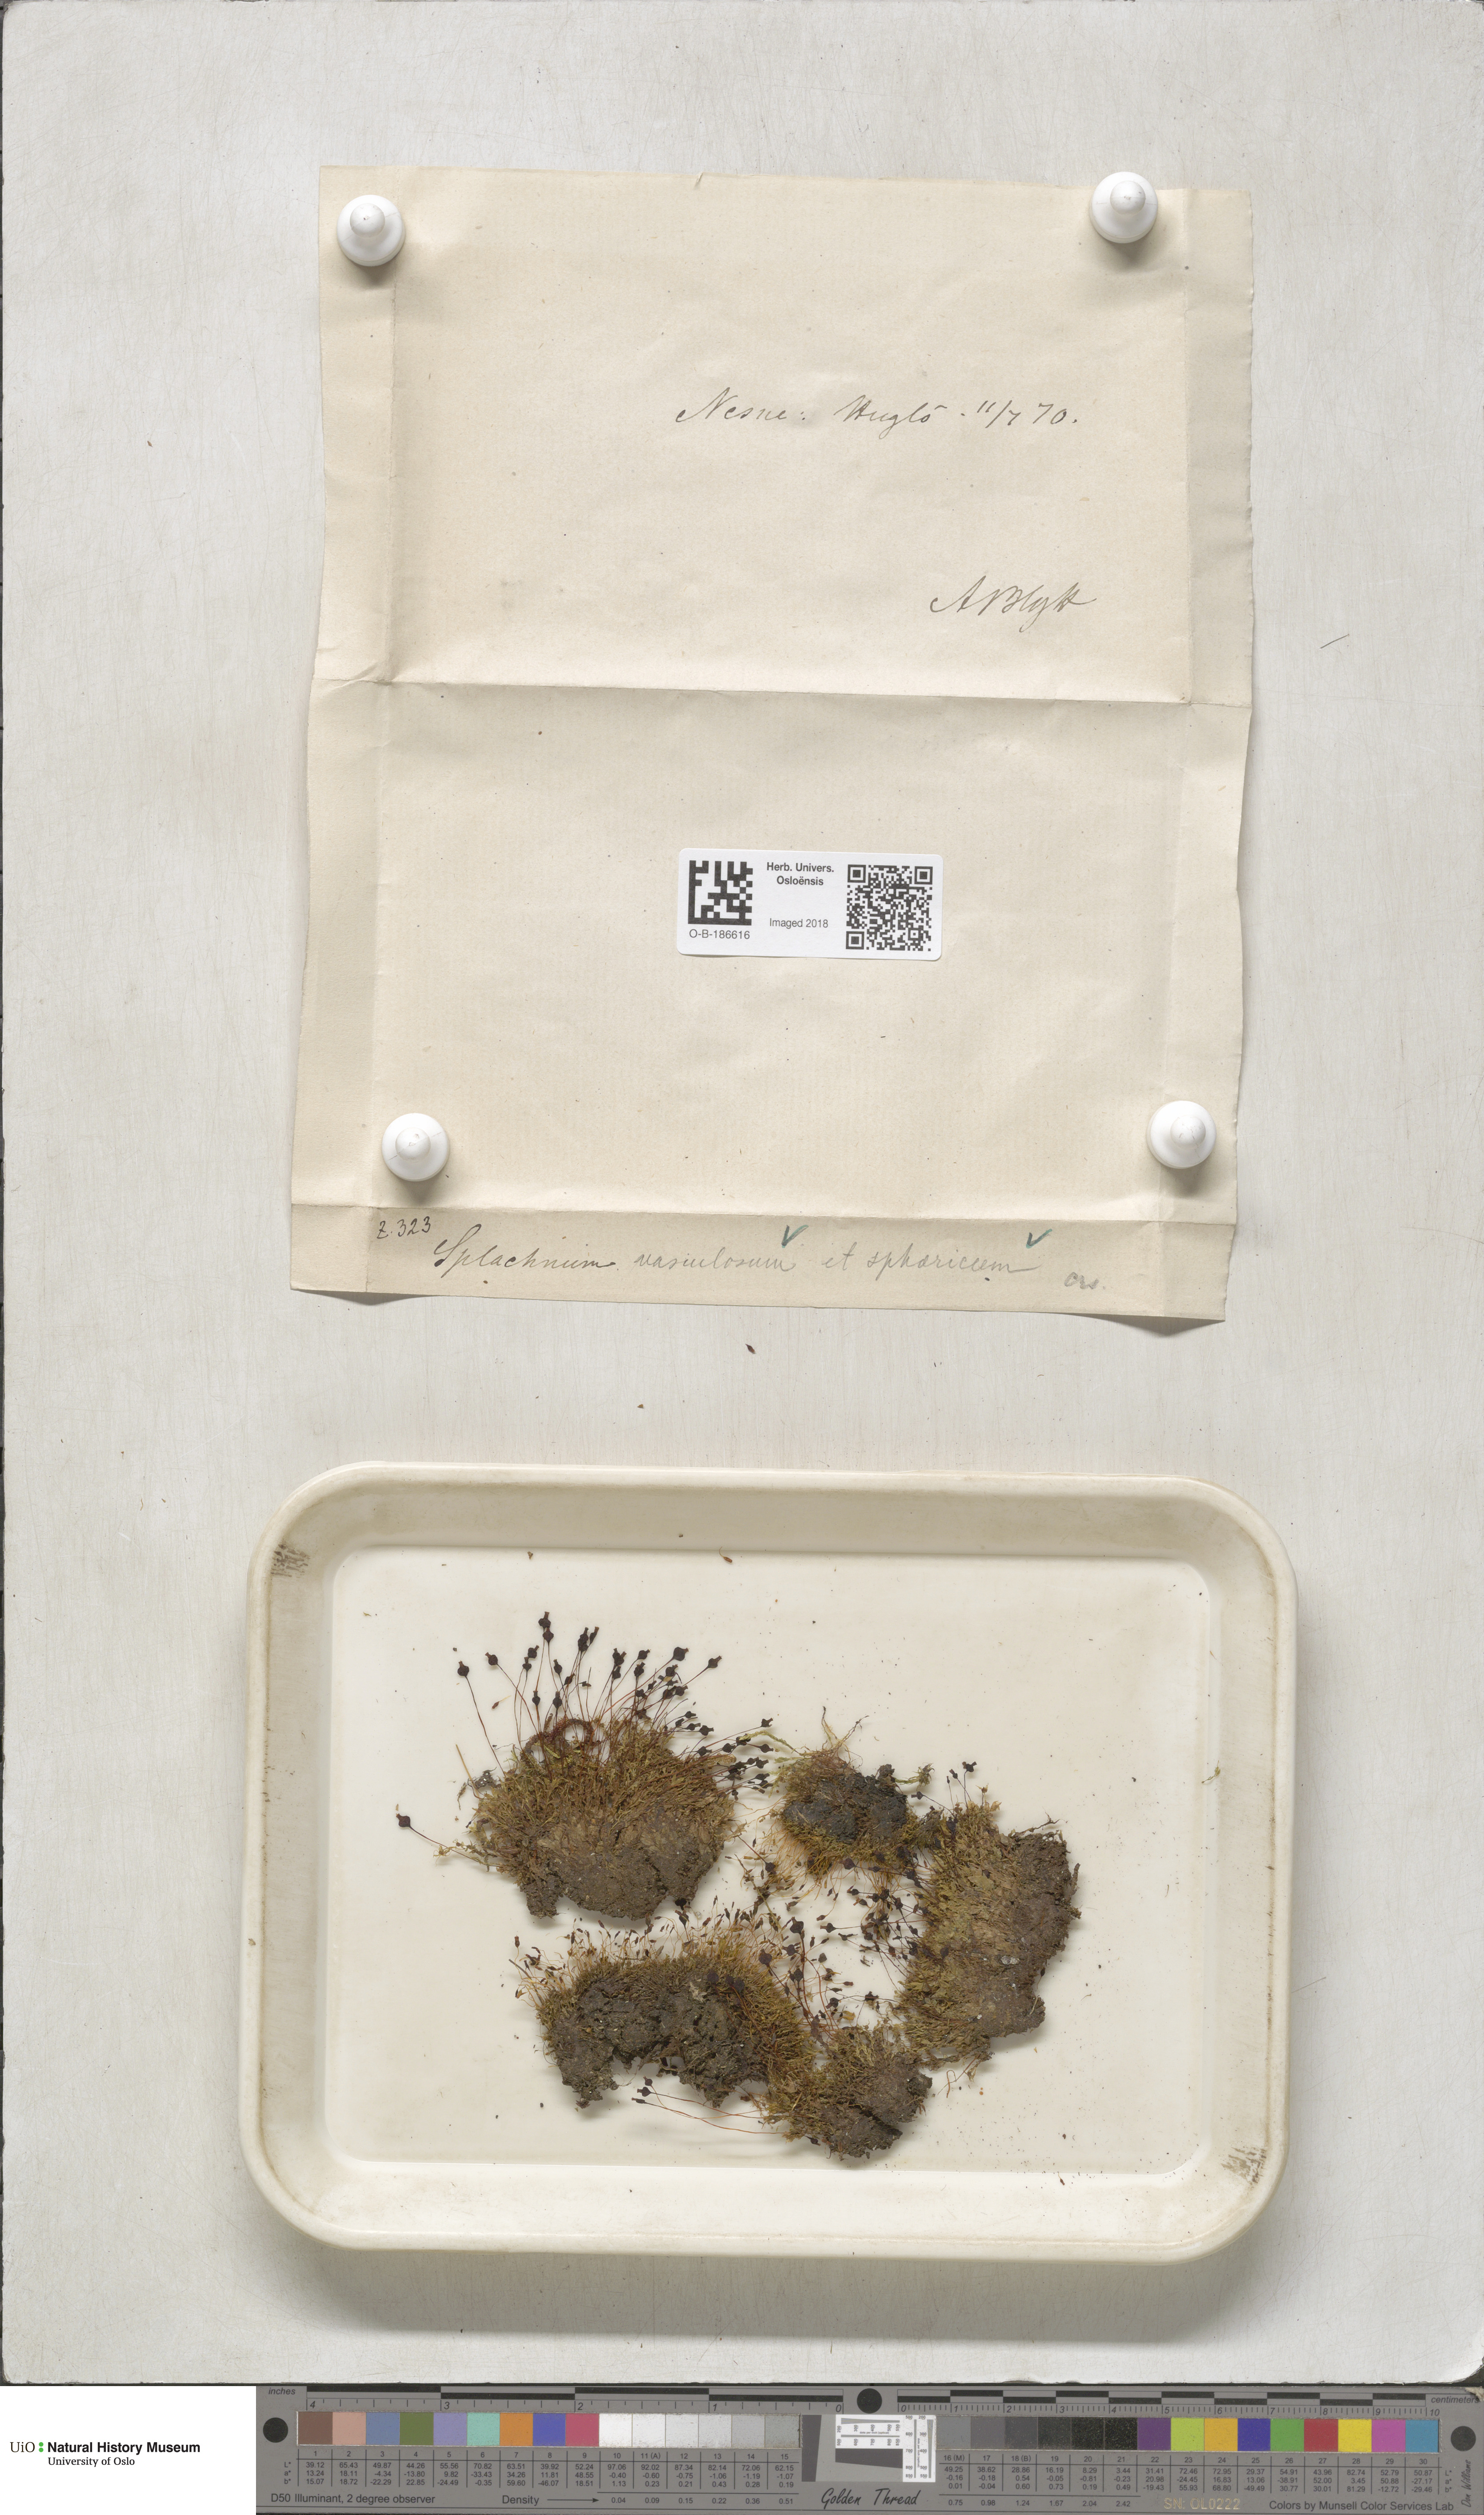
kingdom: Plantae
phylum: Bryophyta
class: Bryopsida
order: Splachnales
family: Splachnaceae
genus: Splachnum
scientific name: Splachnum vasculosum
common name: Rugged dung moss
